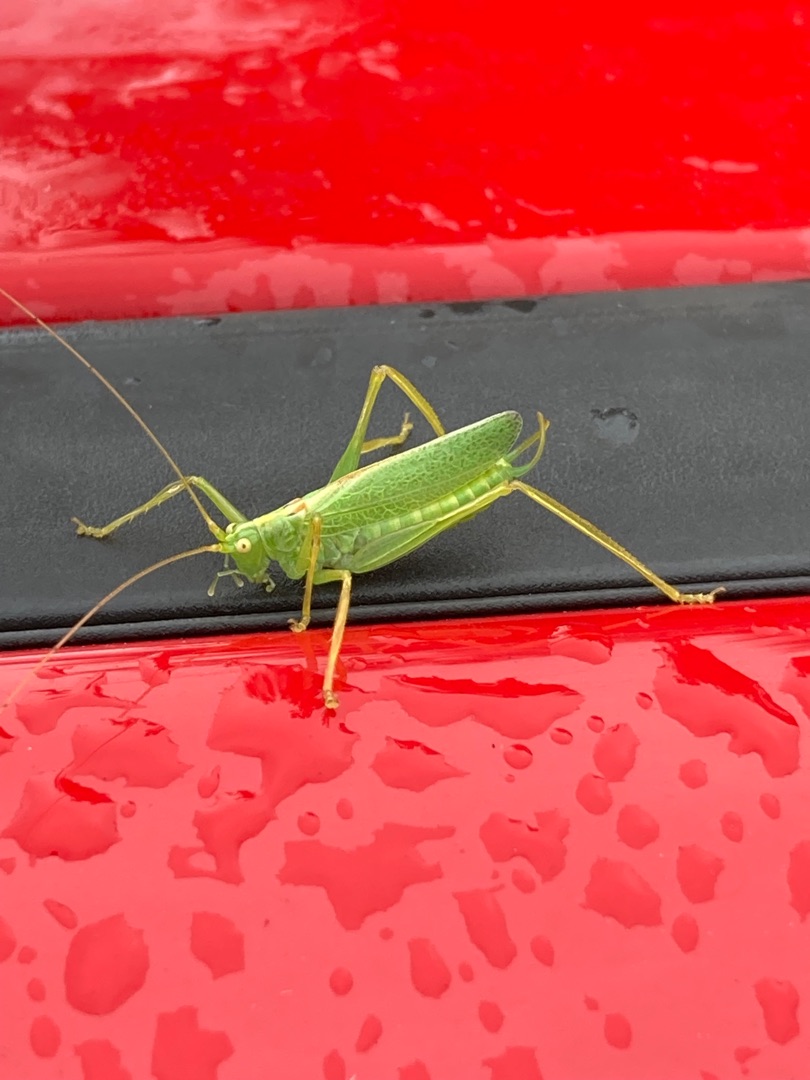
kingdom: Animalia
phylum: Arthropoda
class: Insecta
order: Orthoptera
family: Tettigoniidae
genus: Meconema
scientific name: Meconema thalassinum
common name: Egegræshoppe
